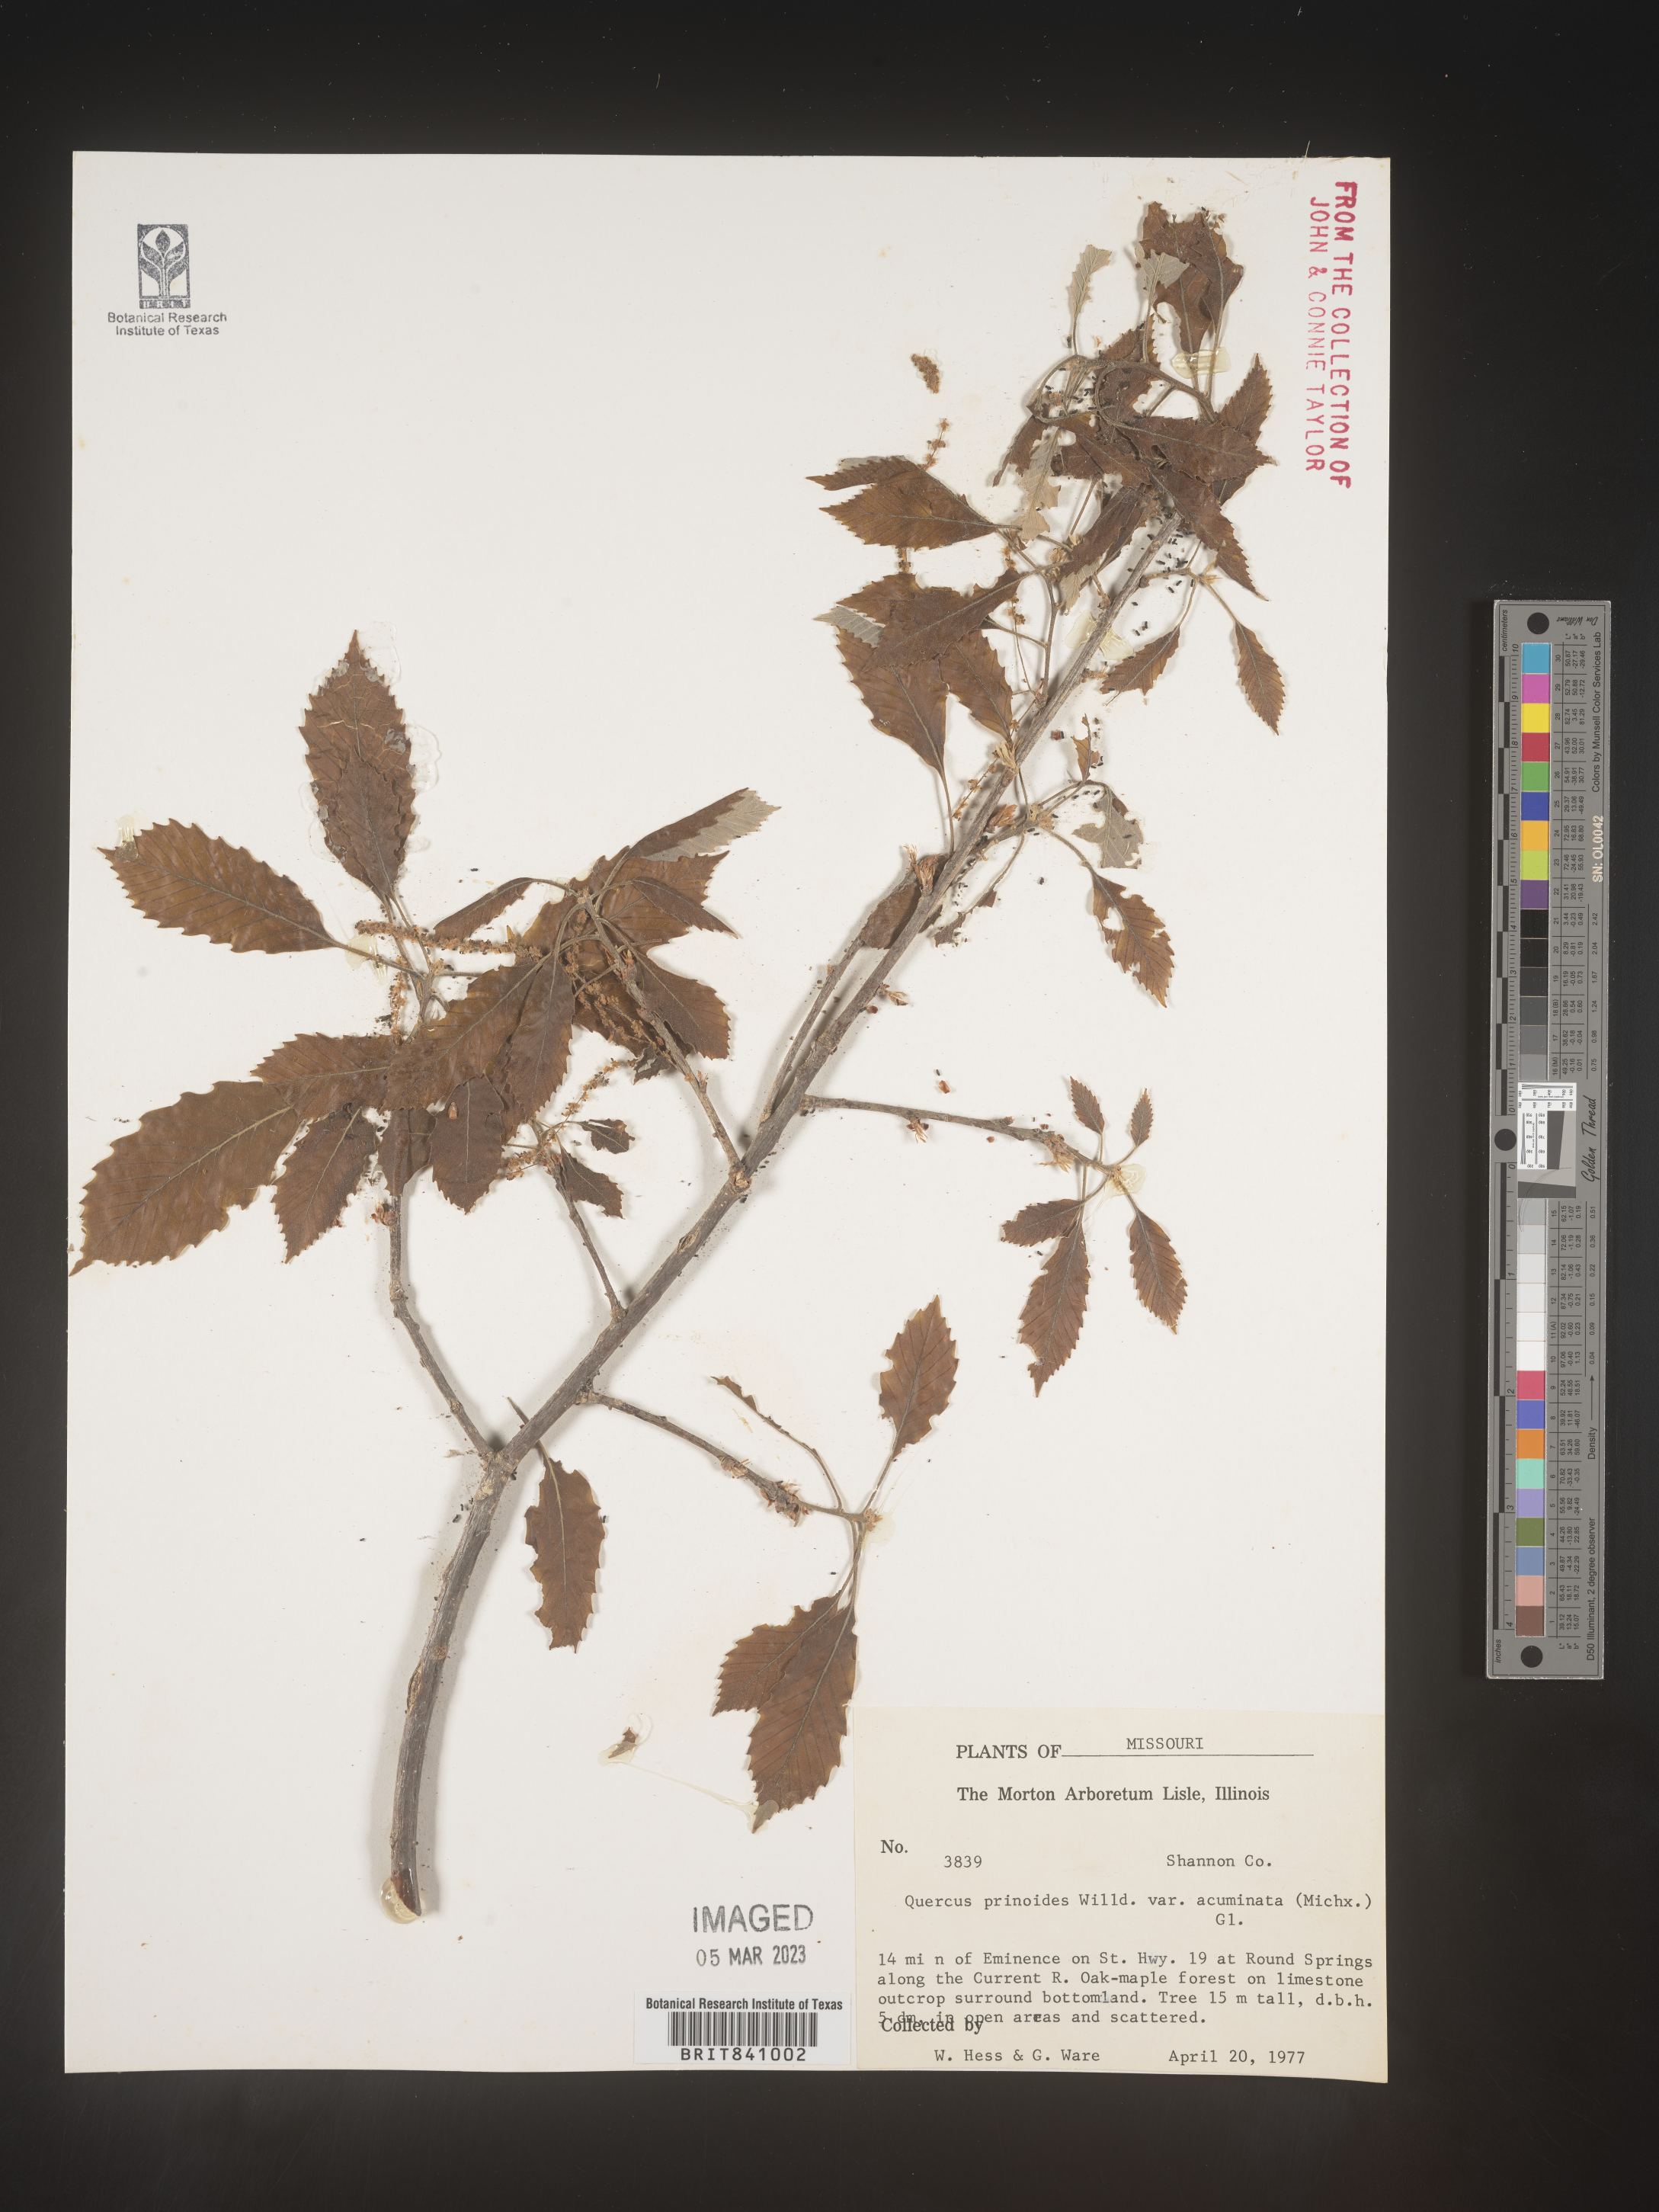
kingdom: Plantae
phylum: Tracheophyta
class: Magnoliopsida
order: Fagales
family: Fagaceae
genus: Quercus
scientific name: Quercus prinoides
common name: Dwarf chinkapin oak
